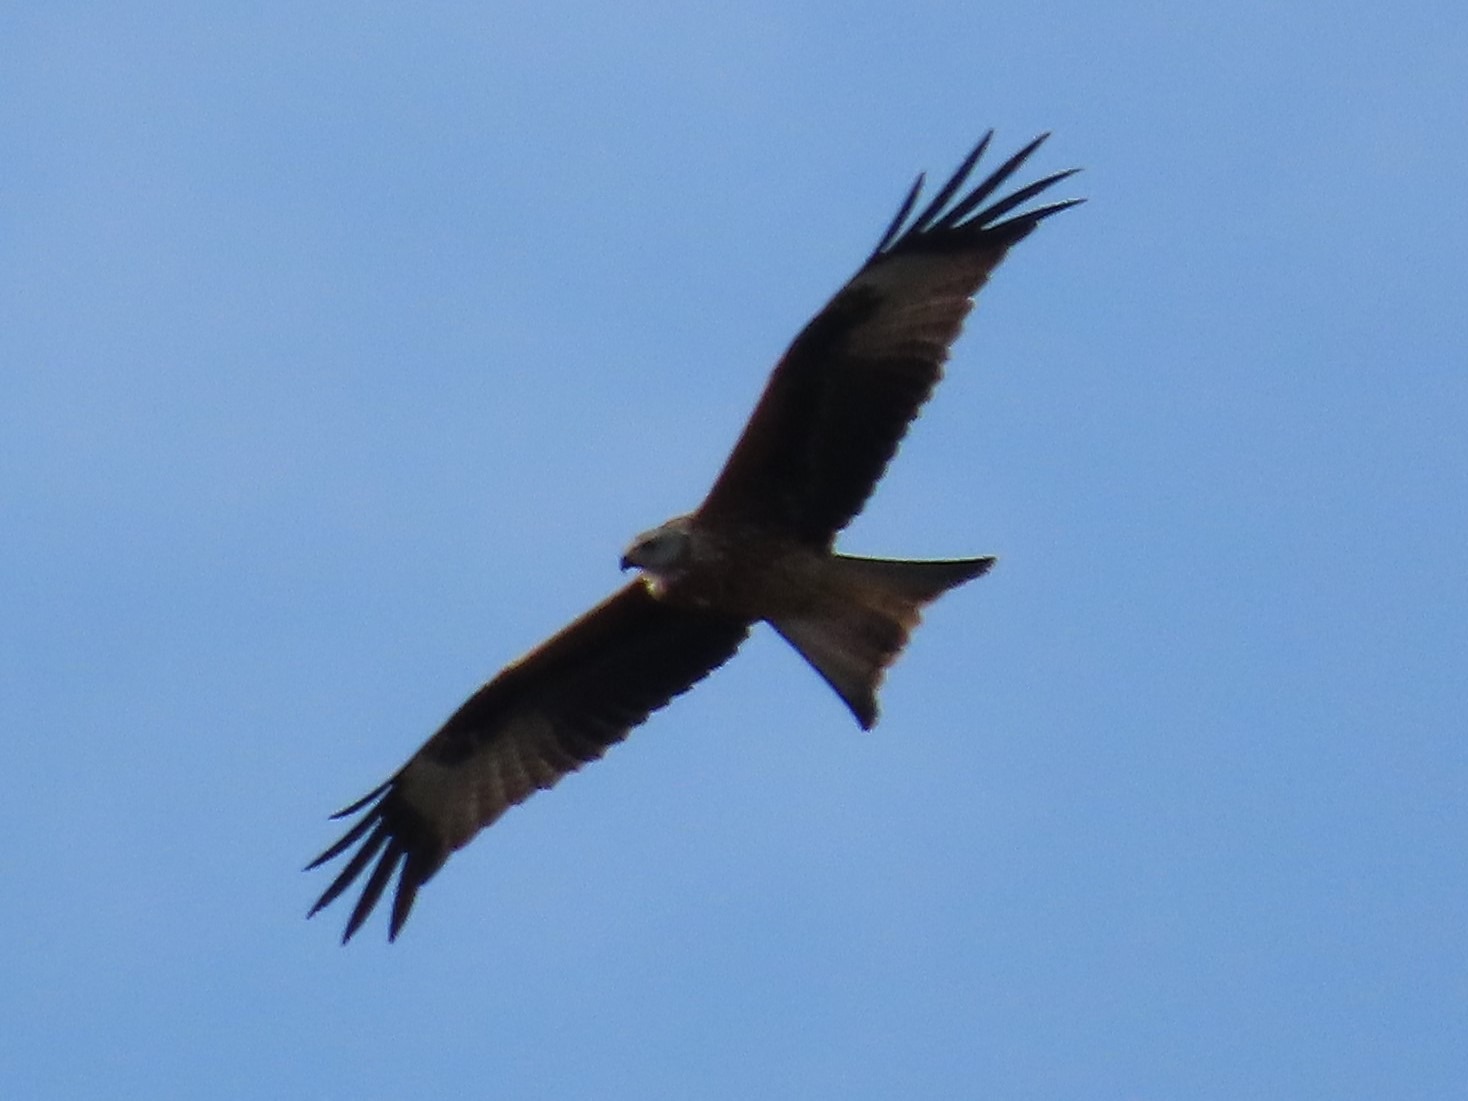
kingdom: Animalia
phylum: Chordata
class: Aves
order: Accipitriformes
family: Accipitridae
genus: Milvus
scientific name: Milvus milvus
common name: Rød glente
